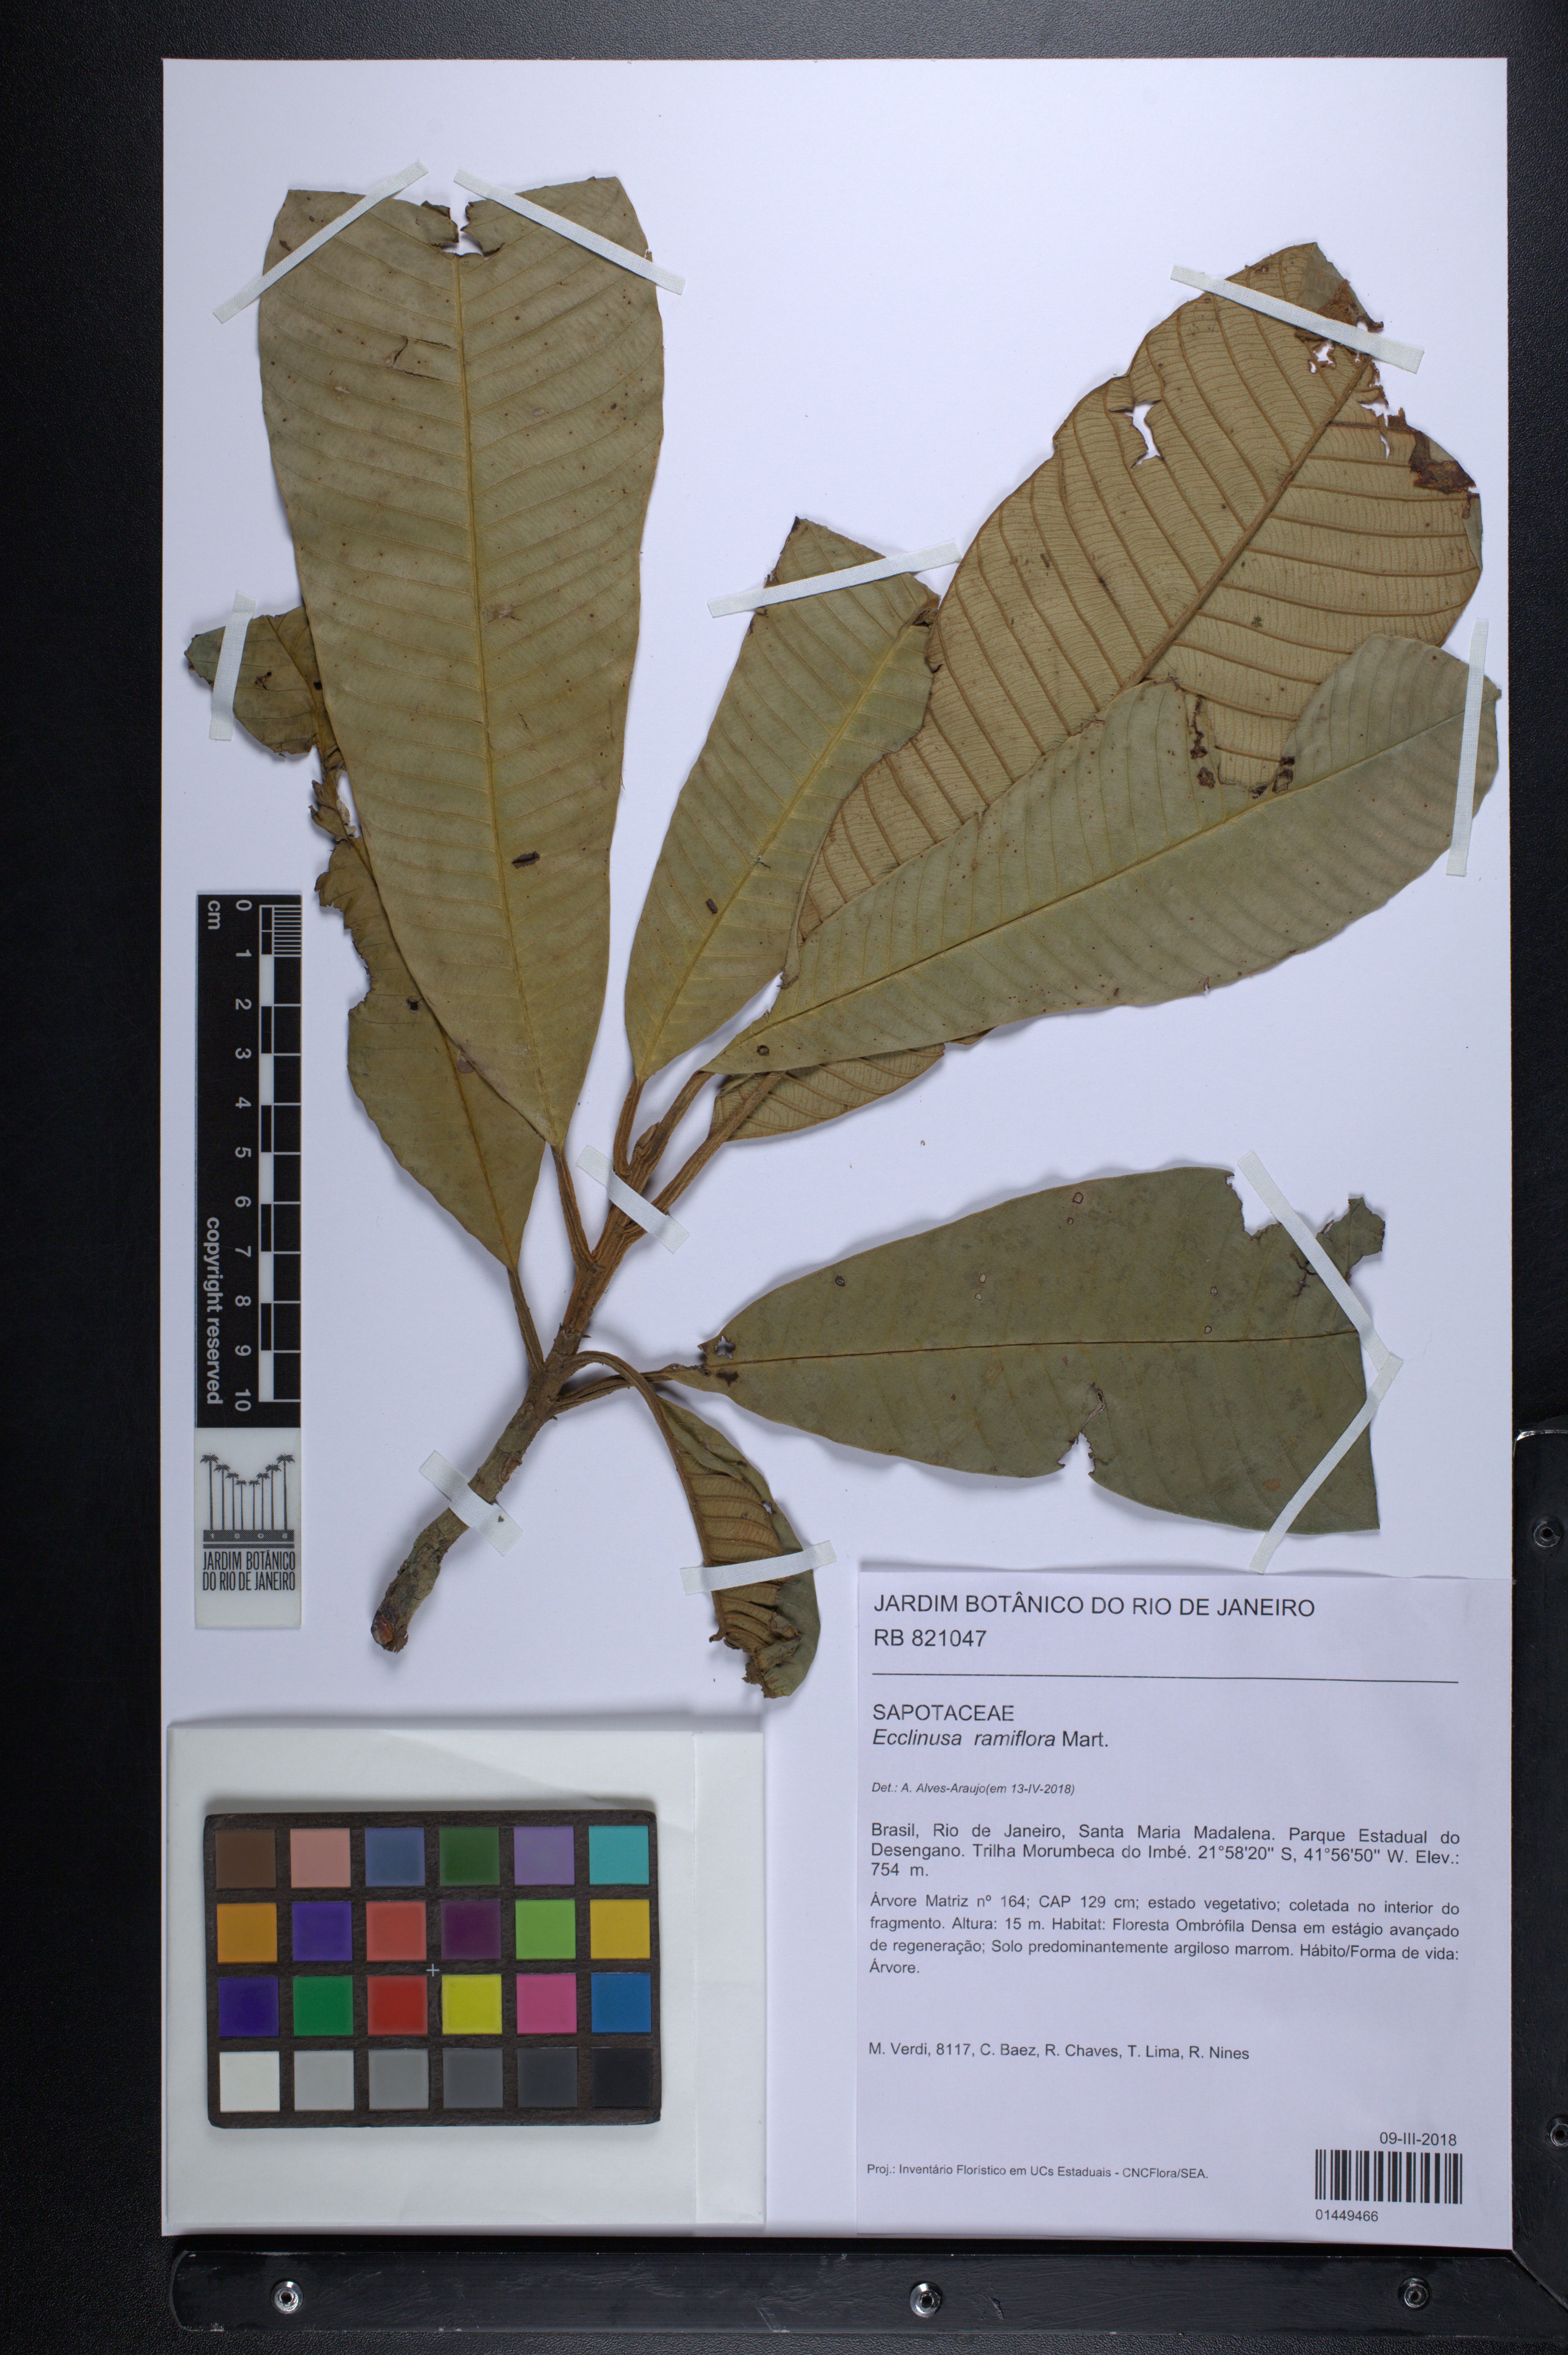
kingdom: Plantae
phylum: Tracheophyta
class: Magnoliopsida
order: Ericales
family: Sapotaceae
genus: Ecclinusa
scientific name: Ecclinusa ramiflora
